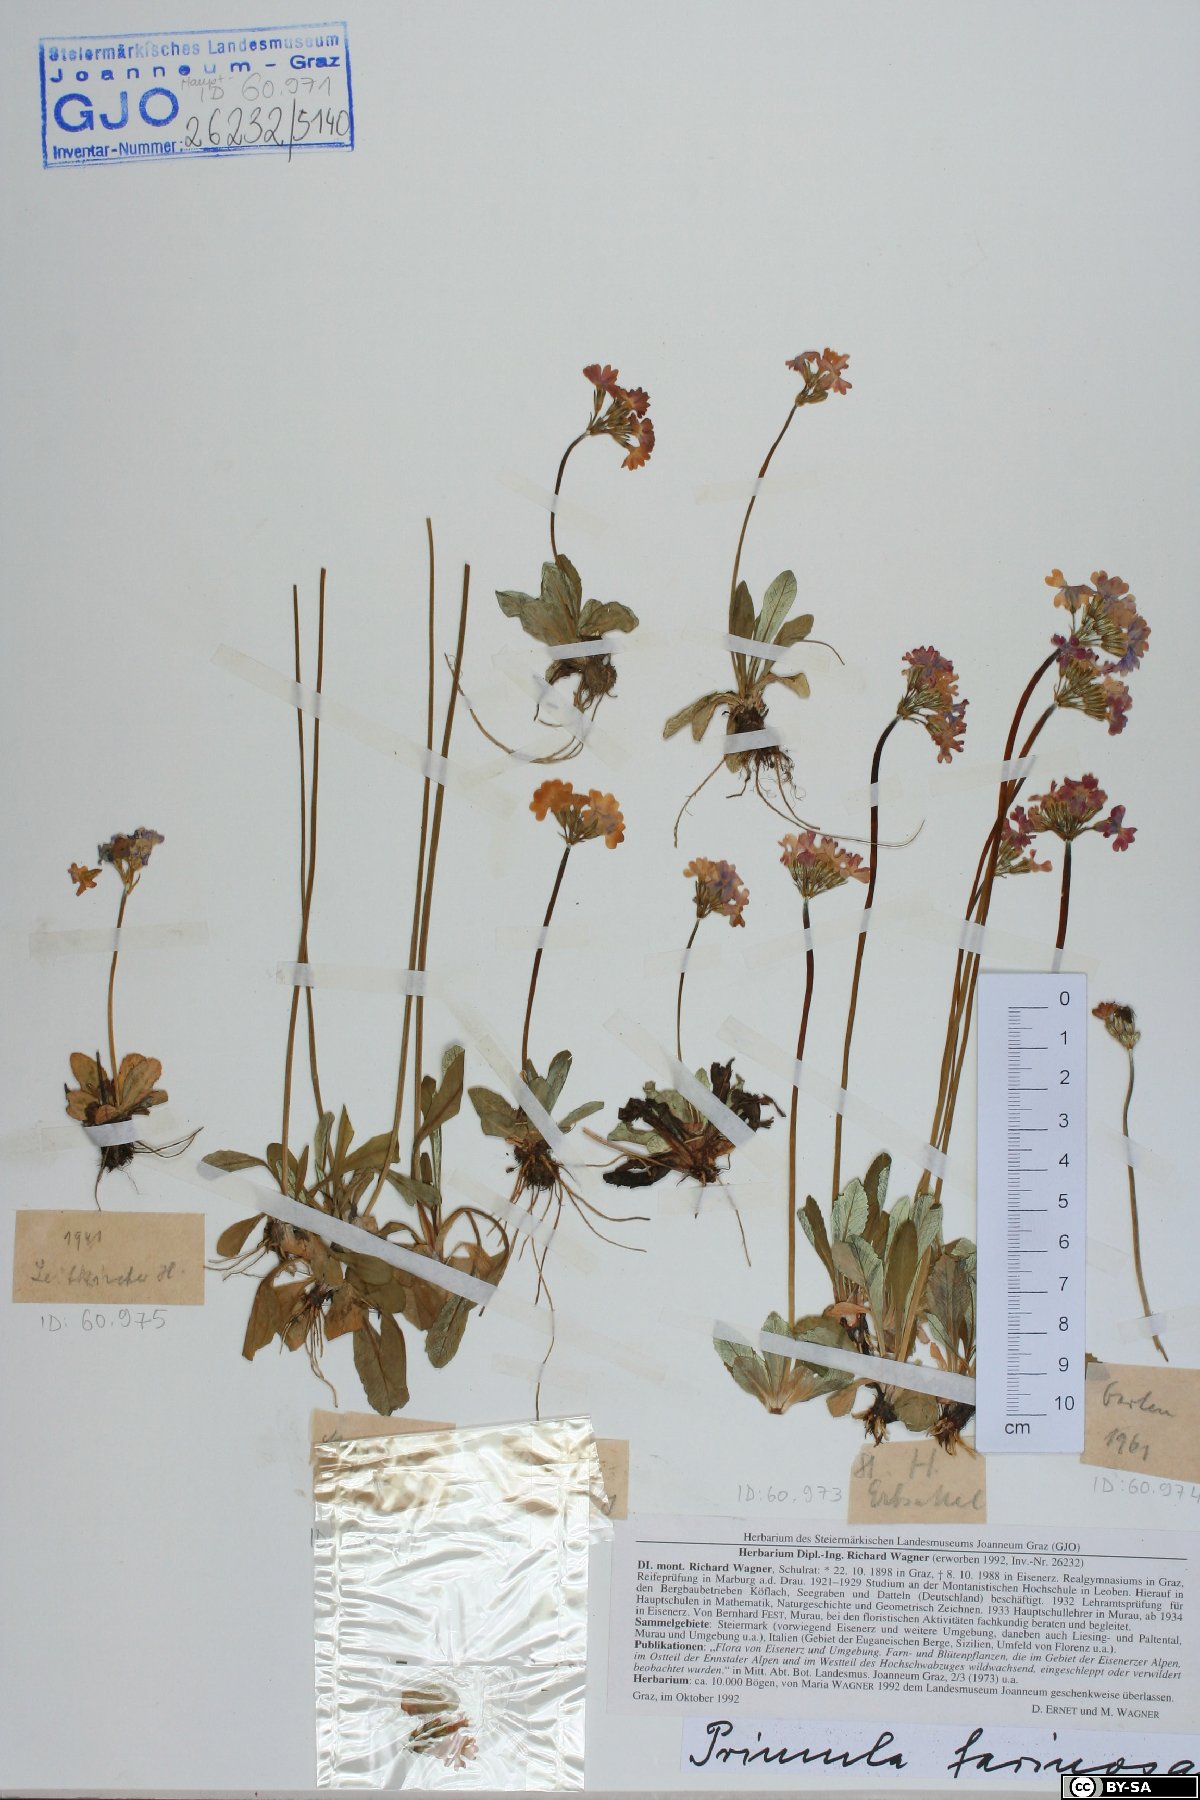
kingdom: Plantae
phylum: Tracheophyta
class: Magnoliopsida
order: Ericales
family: Primulaceae
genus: Primula
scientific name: Primula farinosa
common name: Bird's-eye primrose
